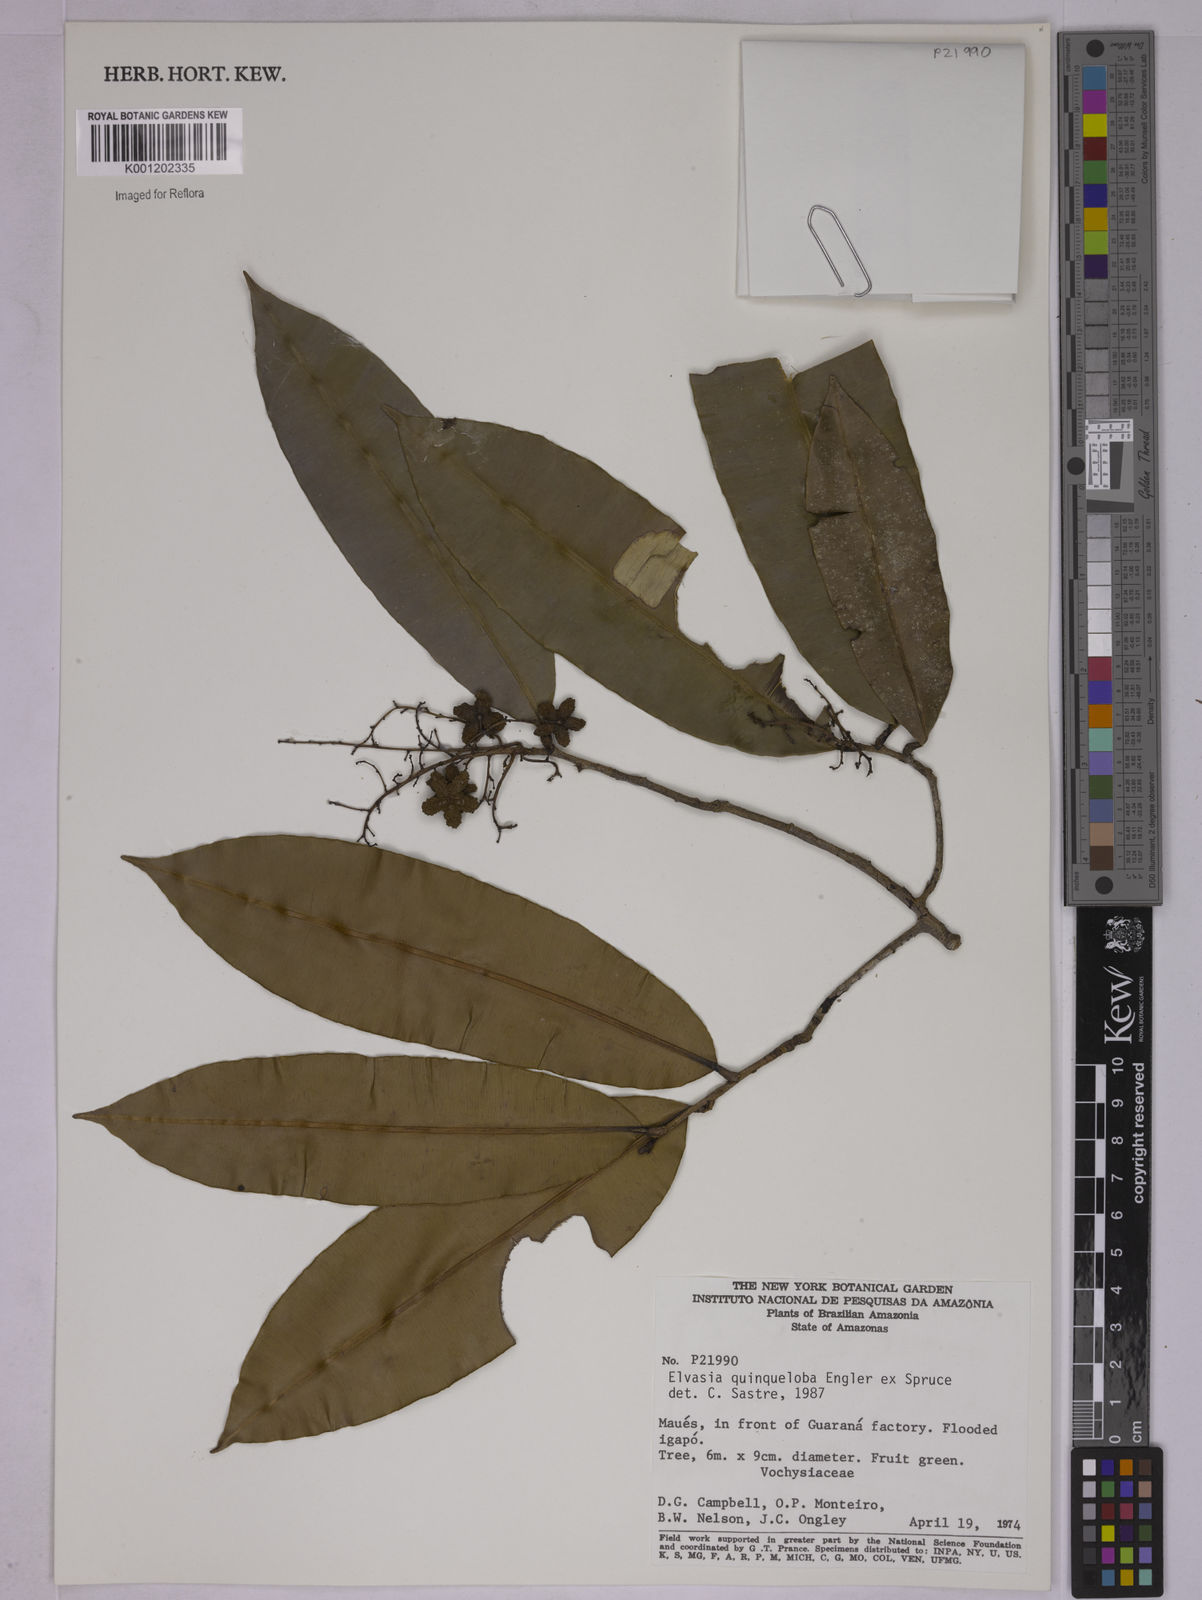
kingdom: Plantae
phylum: Tracheophyta
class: Magnoliopsida
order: Malpighiales
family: Ochnaceae
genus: Elvasia
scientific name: Elvasia quinqueloba
